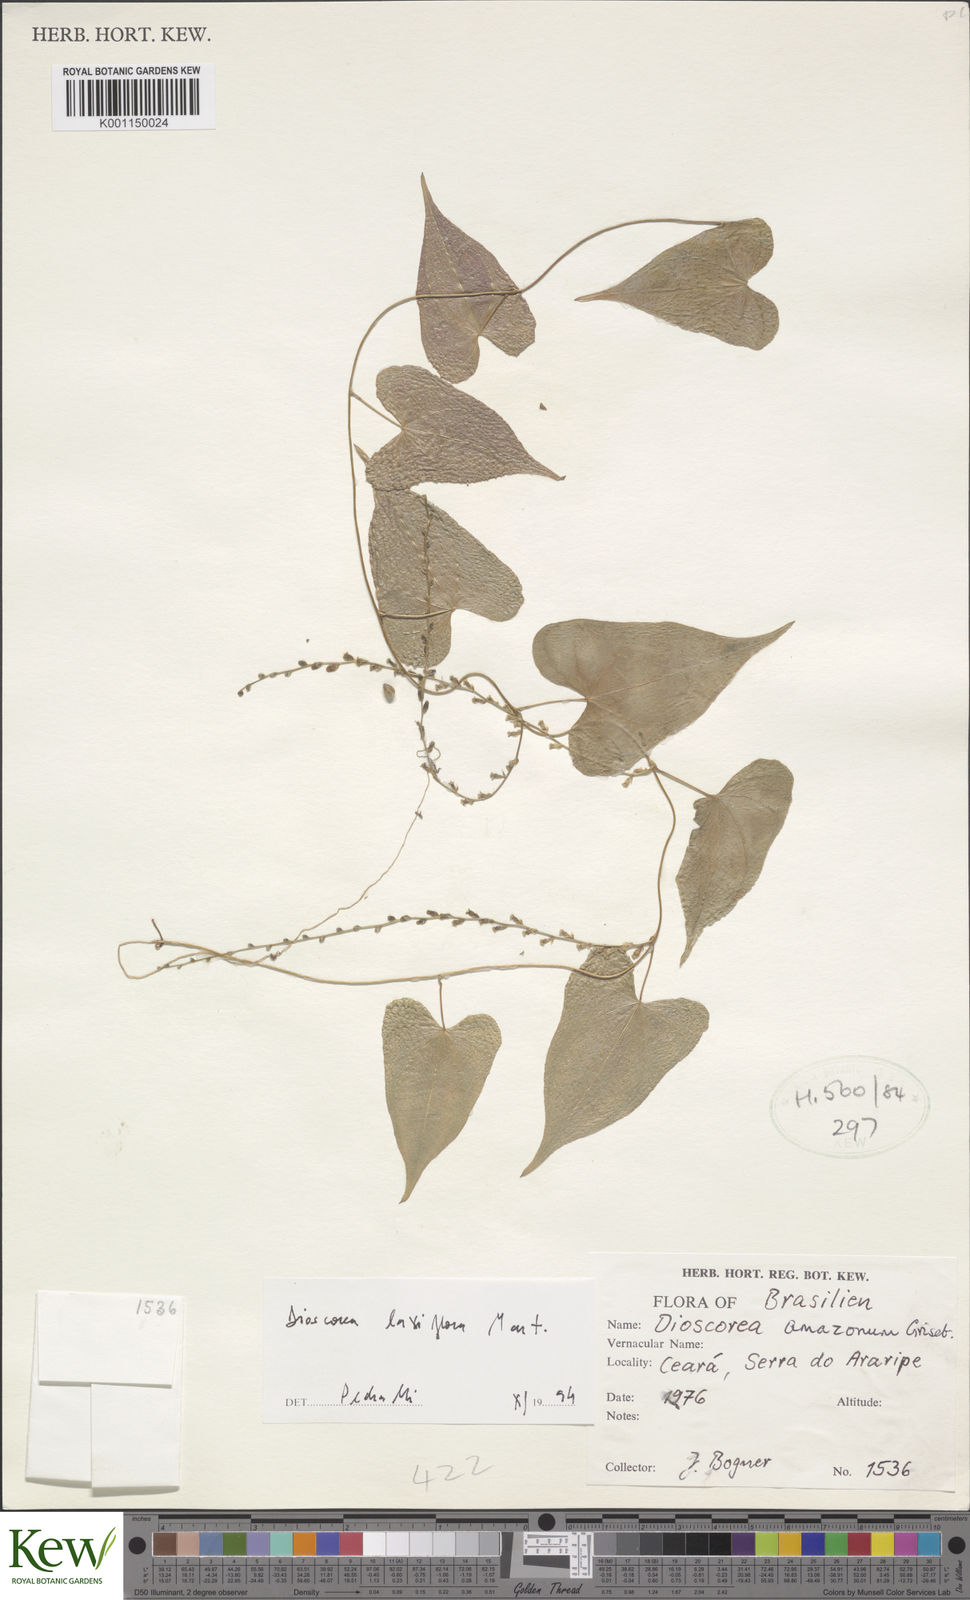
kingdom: Plantae
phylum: Tracheophyta
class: Liliopsida
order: Dioscoreales
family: Dioscoreaceae
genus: Dioscorea
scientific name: Dioscorea amazonum
